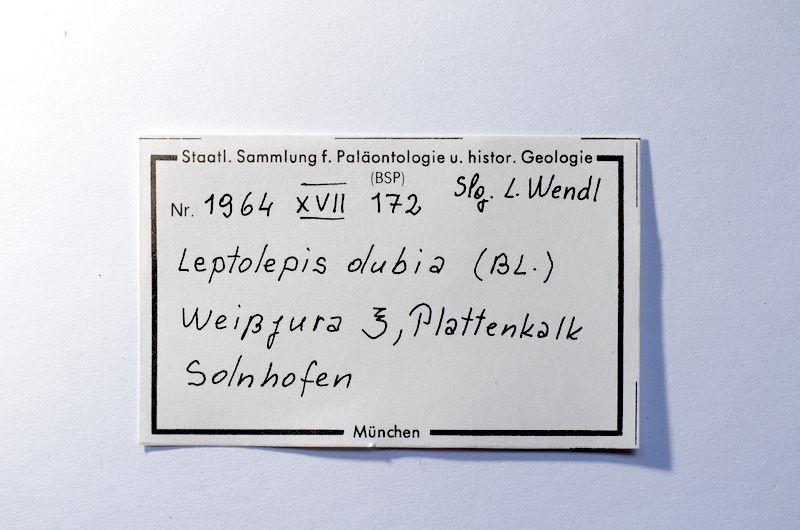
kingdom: Animalia
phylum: Chordata
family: Ascalaboidae
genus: Tharsis
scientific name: Tharsis dubius
